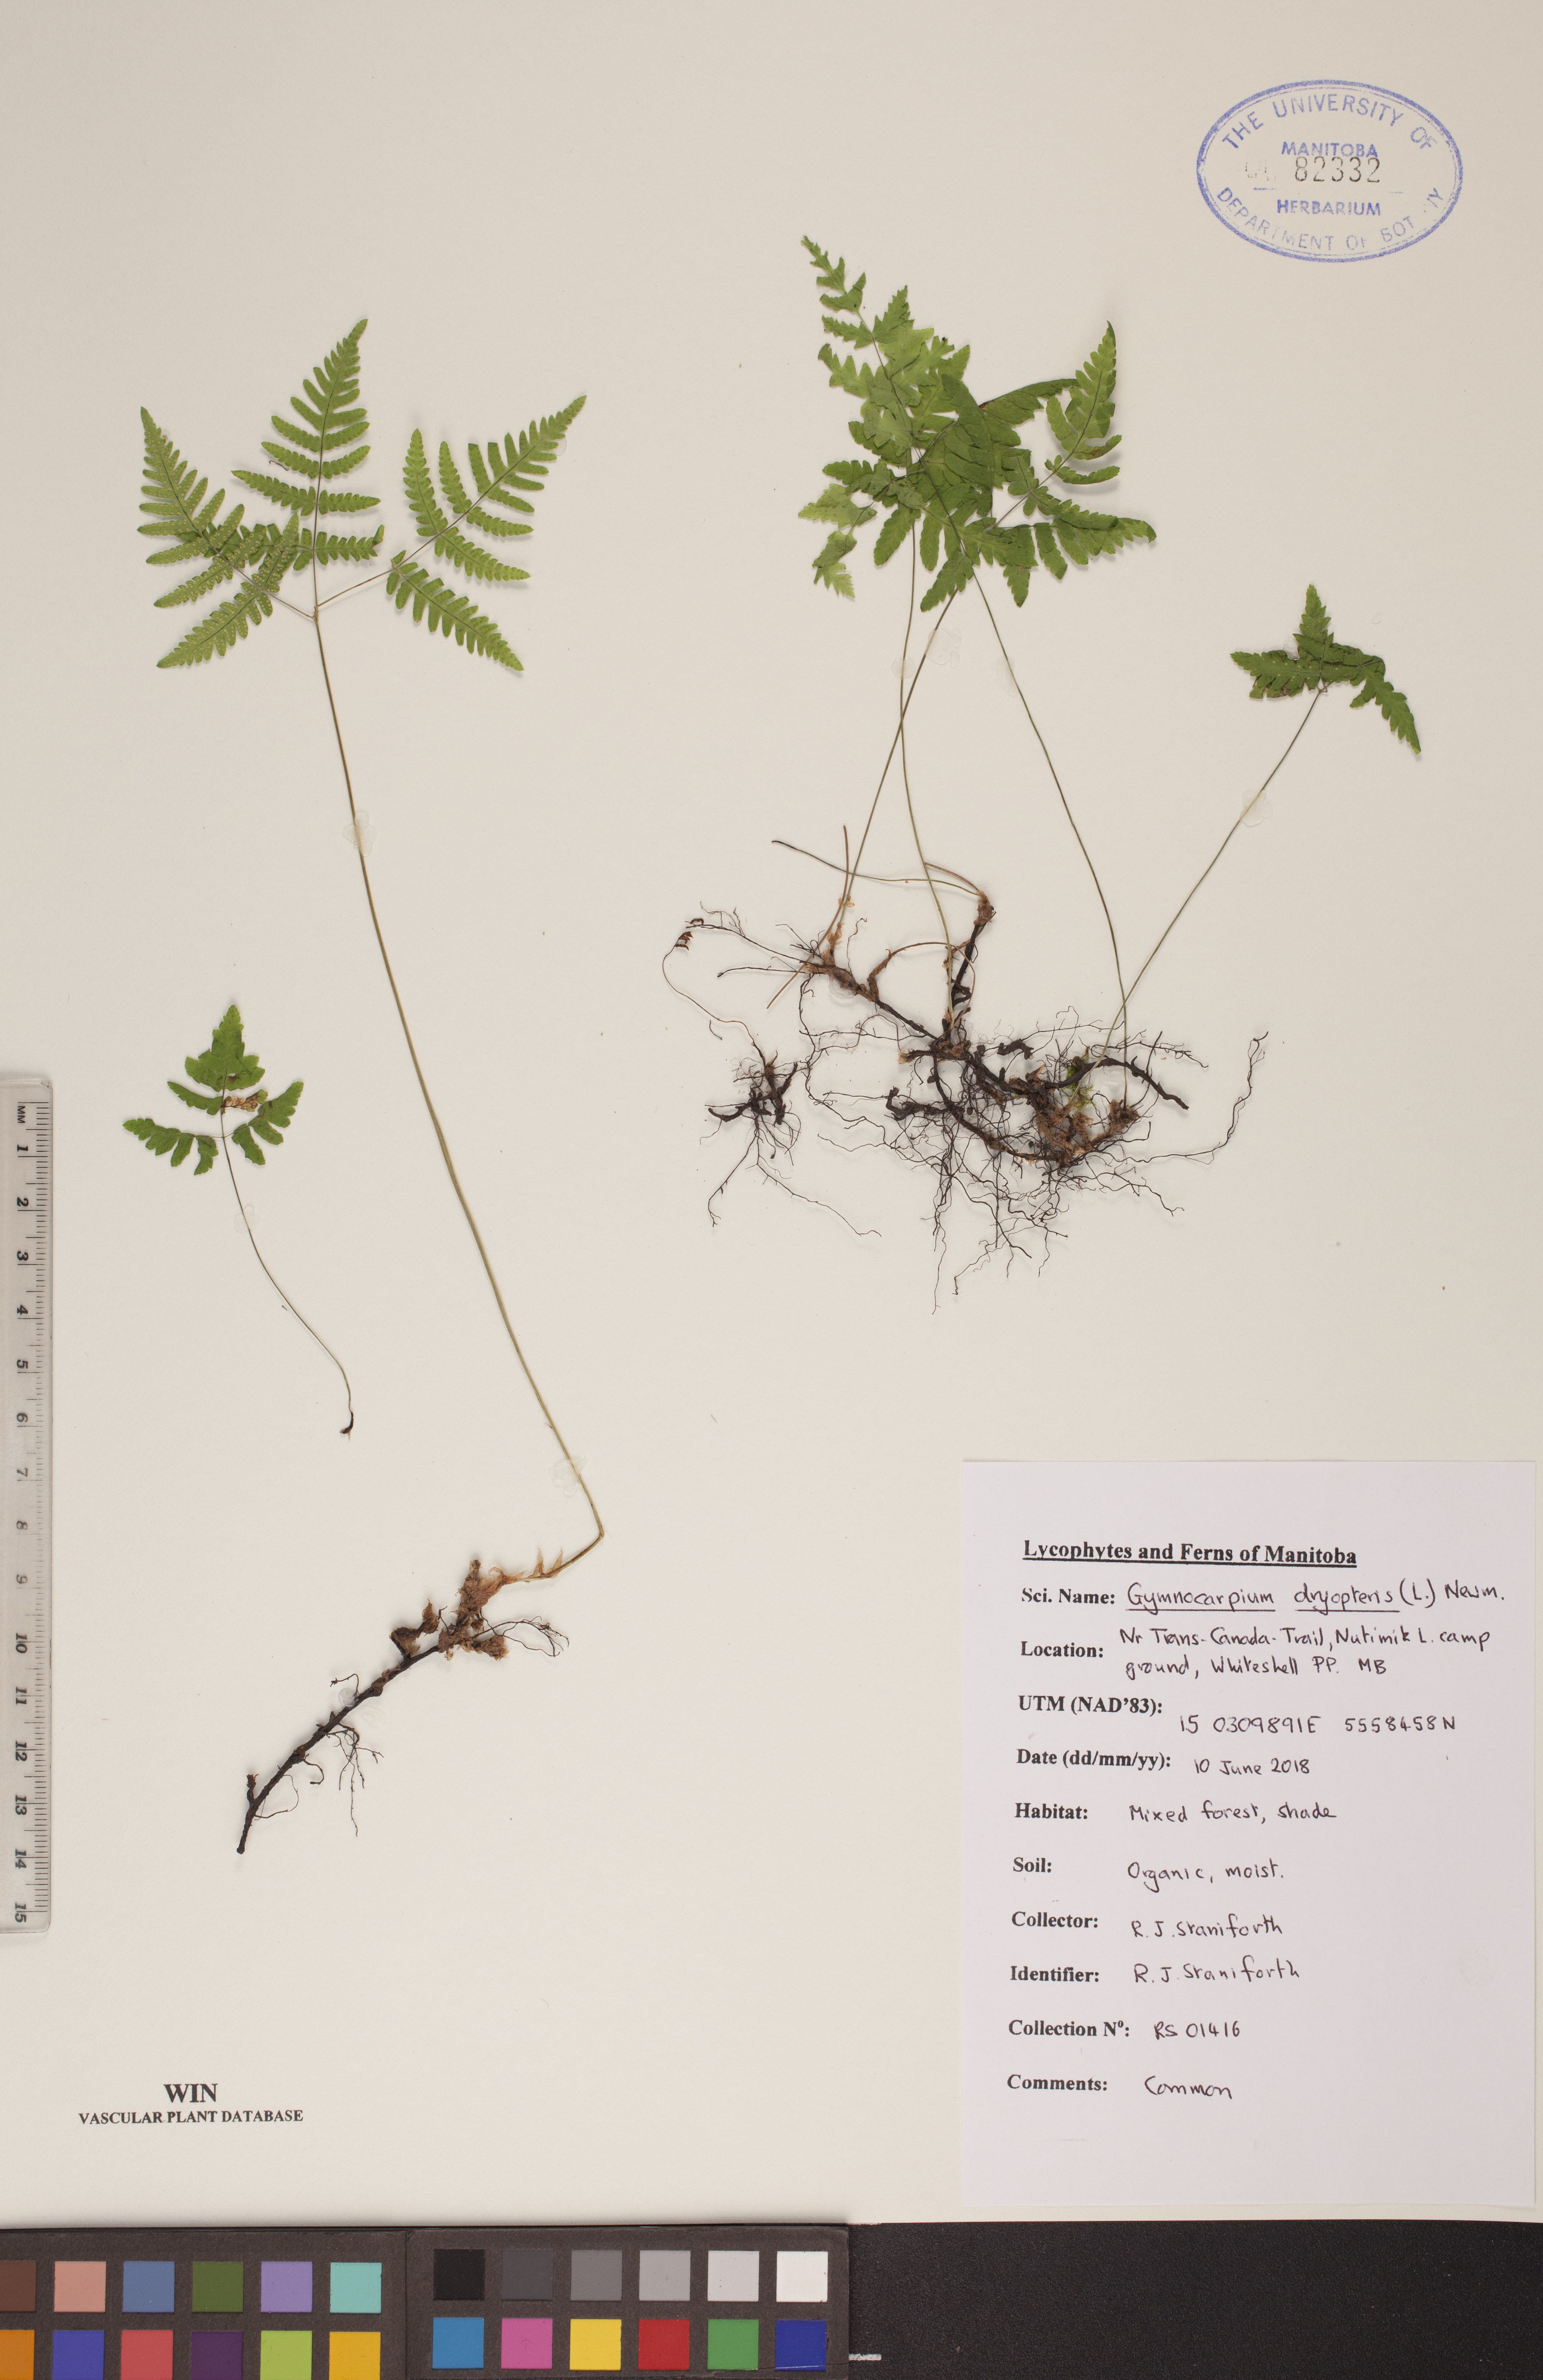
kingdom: Plantae
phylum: Tracheophyta
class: Polypodiopsida
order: Polypodiales
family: Cystopteridaceae
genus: Gymnocarpium
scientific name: Gymnocarpium dryopteris
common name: Oak fern
